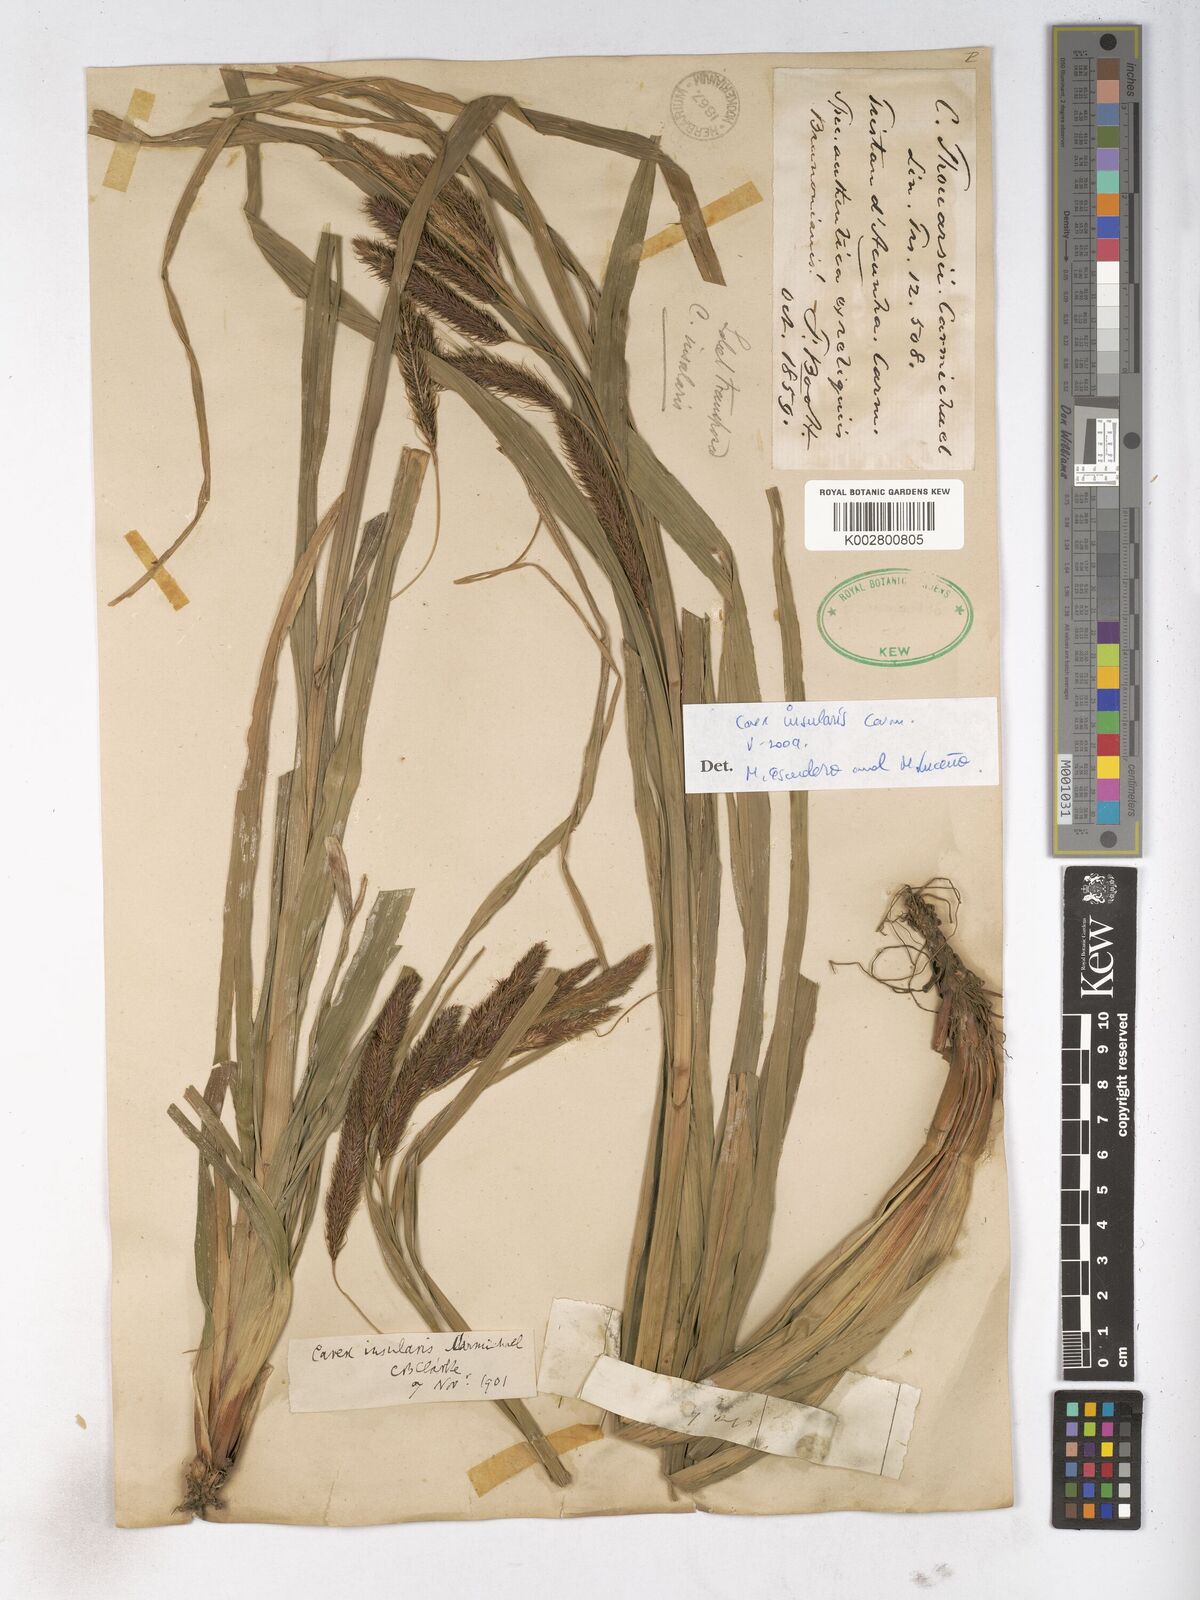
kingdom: Plantae
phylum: Tracheophyta
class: Liliopsida
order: Poales
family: Cyperaceae
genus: Carex
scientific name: Carex insularis
